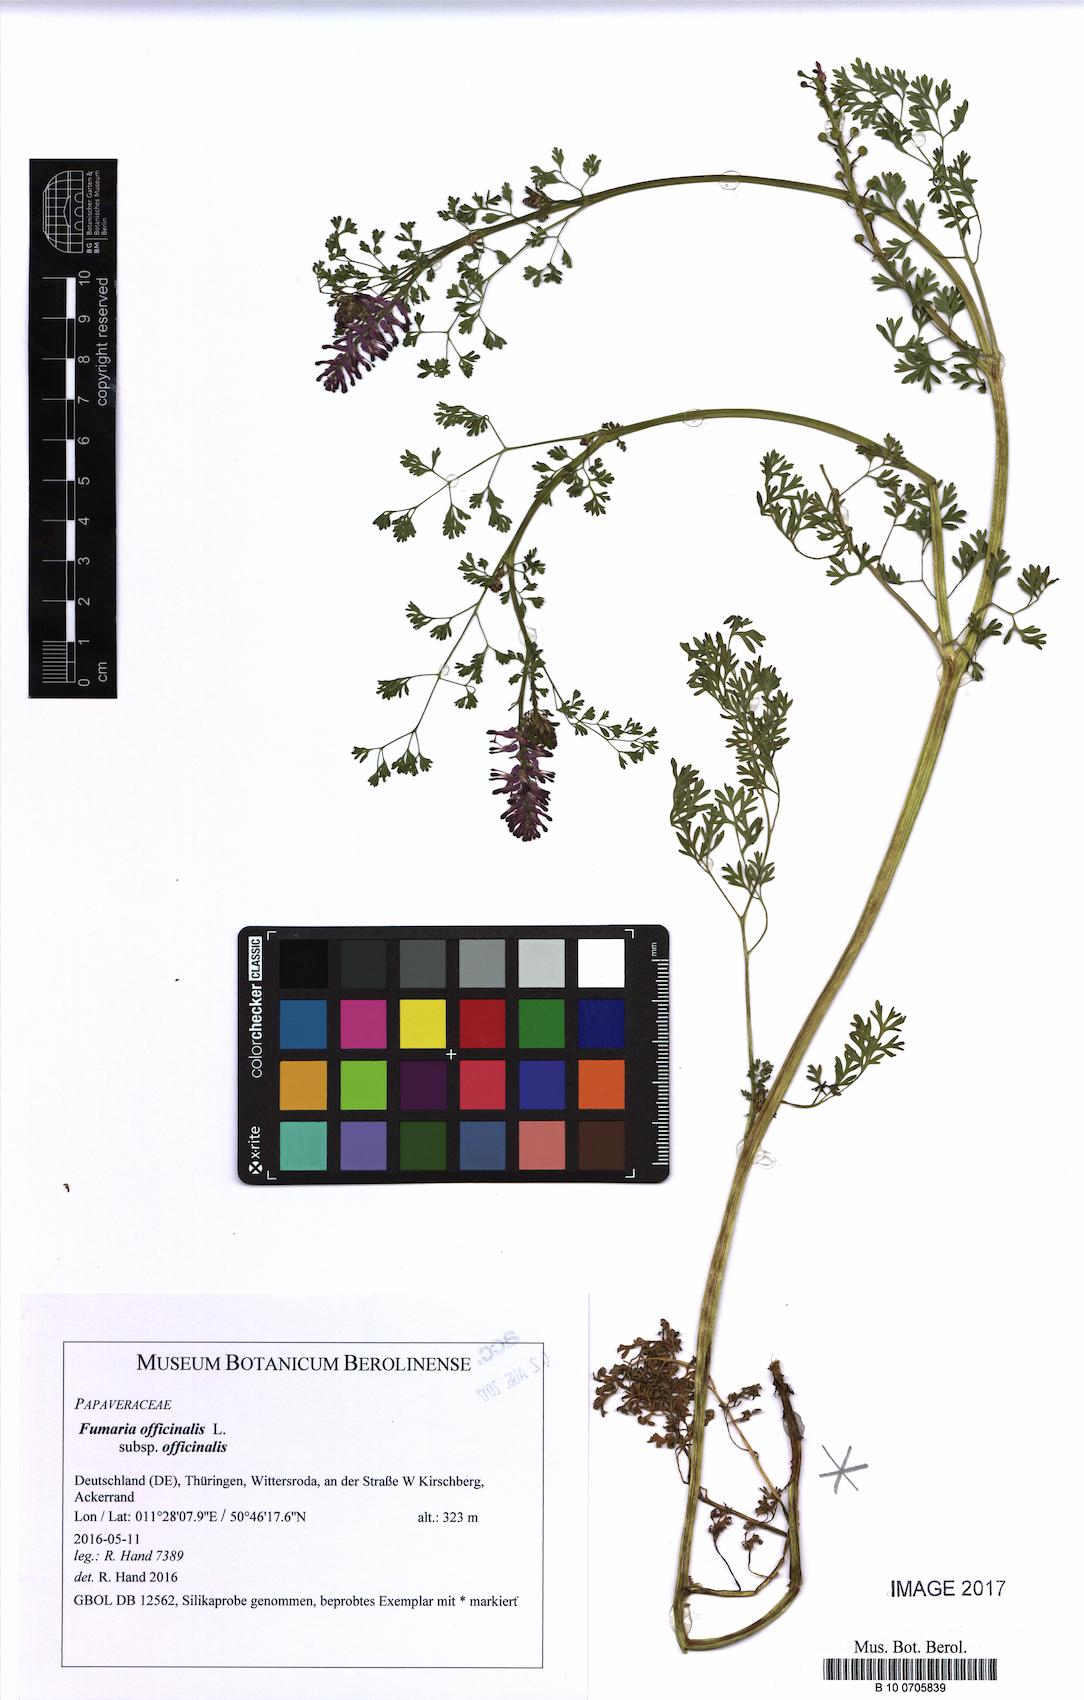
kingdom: Plantae
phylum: Tracheophyta
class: Magnoliopsida
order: Ranunculales
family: Papaveraceae
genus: Fumaria
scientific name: Fumaria officinalis
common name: Common fumitory
